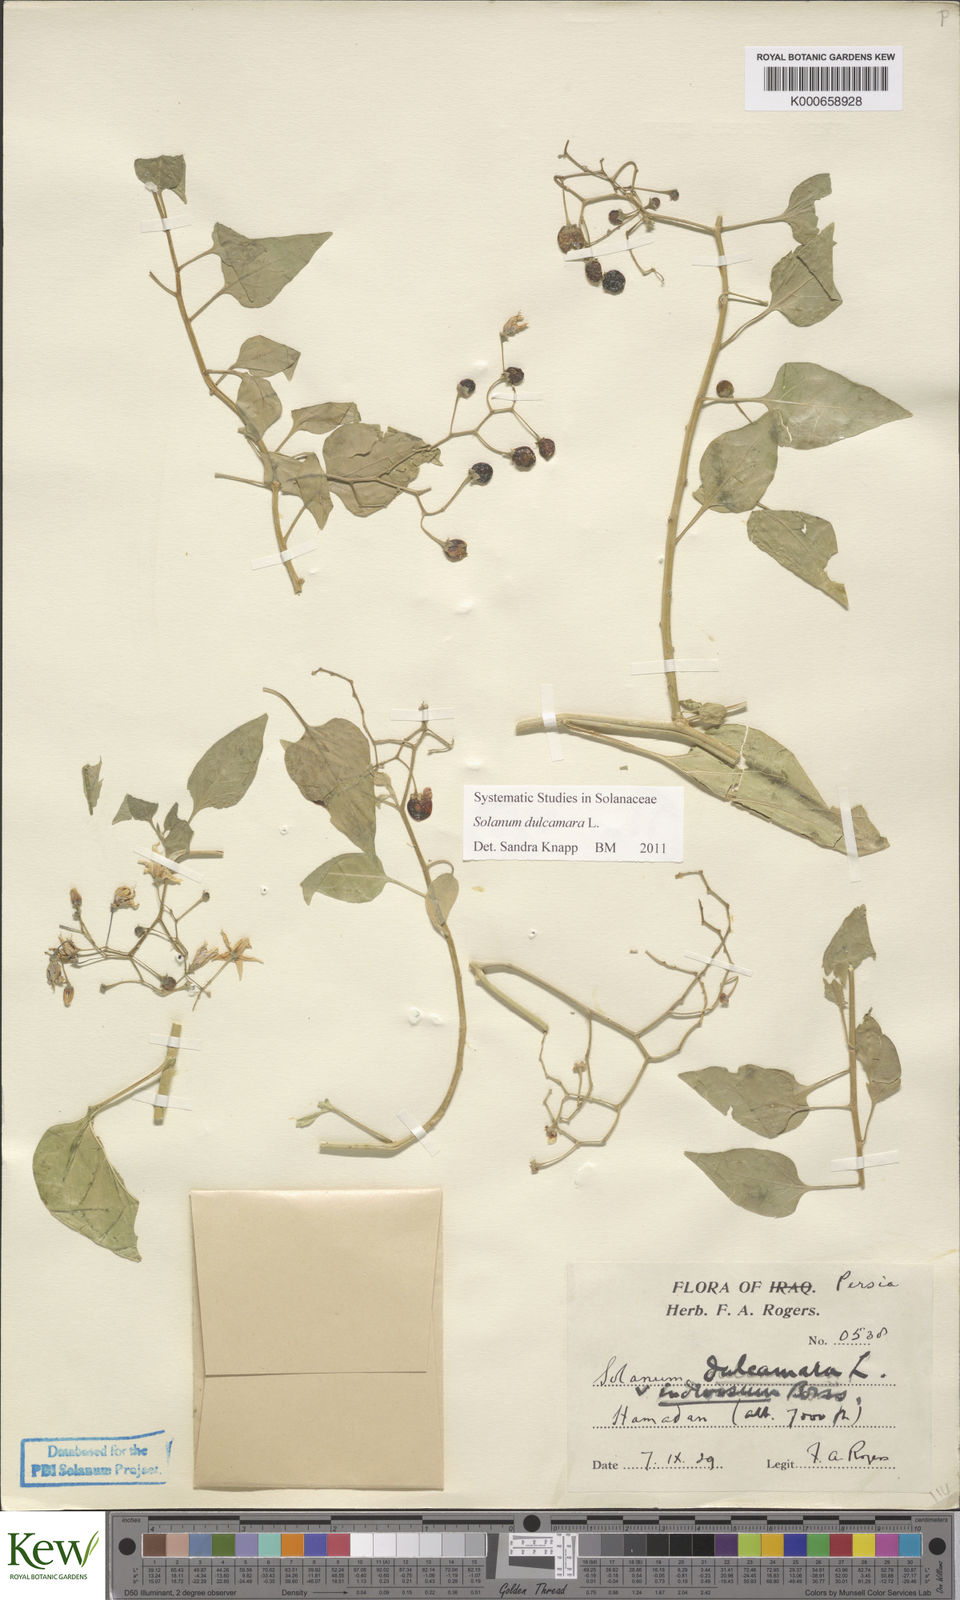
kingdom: Plantae
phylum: Tracheophyta
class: Magnoliopsida
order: Solanales
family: Solanaceae
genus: Solanum
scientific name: Solanum dulcamara
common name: Climbing nightshade
